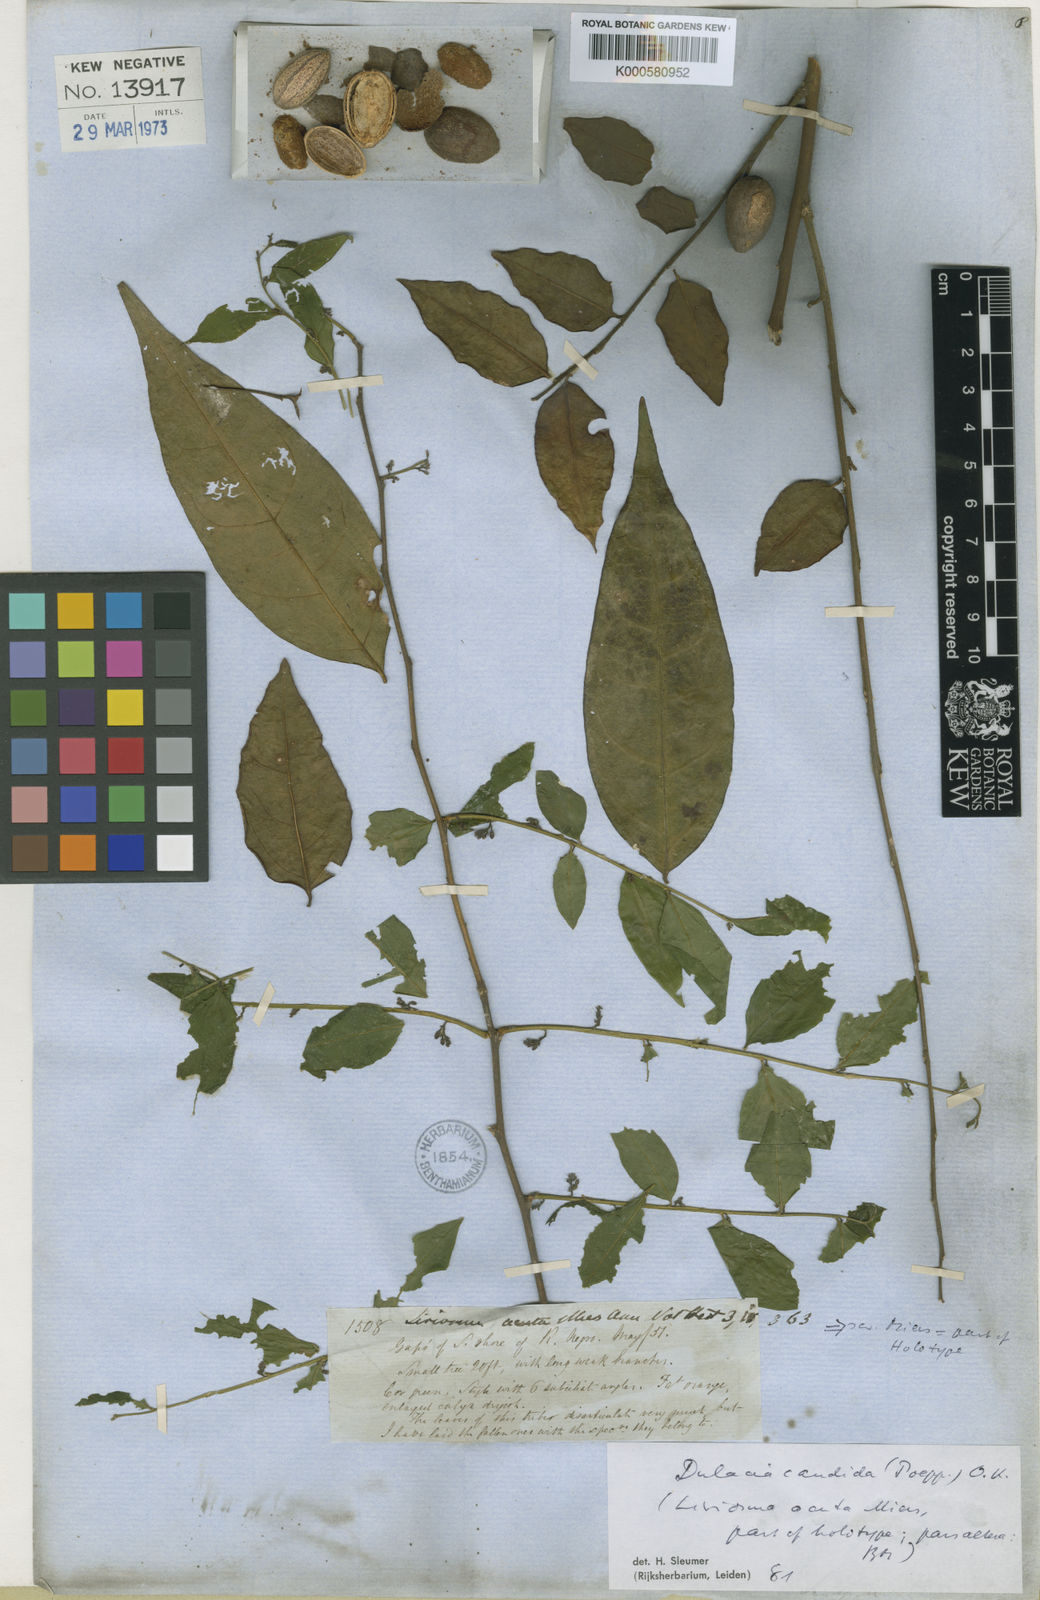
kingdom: Plantae
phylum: Tracheophyta
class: Magnoliopsida
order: Santalales
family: Olacaceae
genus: Dulacia
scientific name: Dulacia candida
